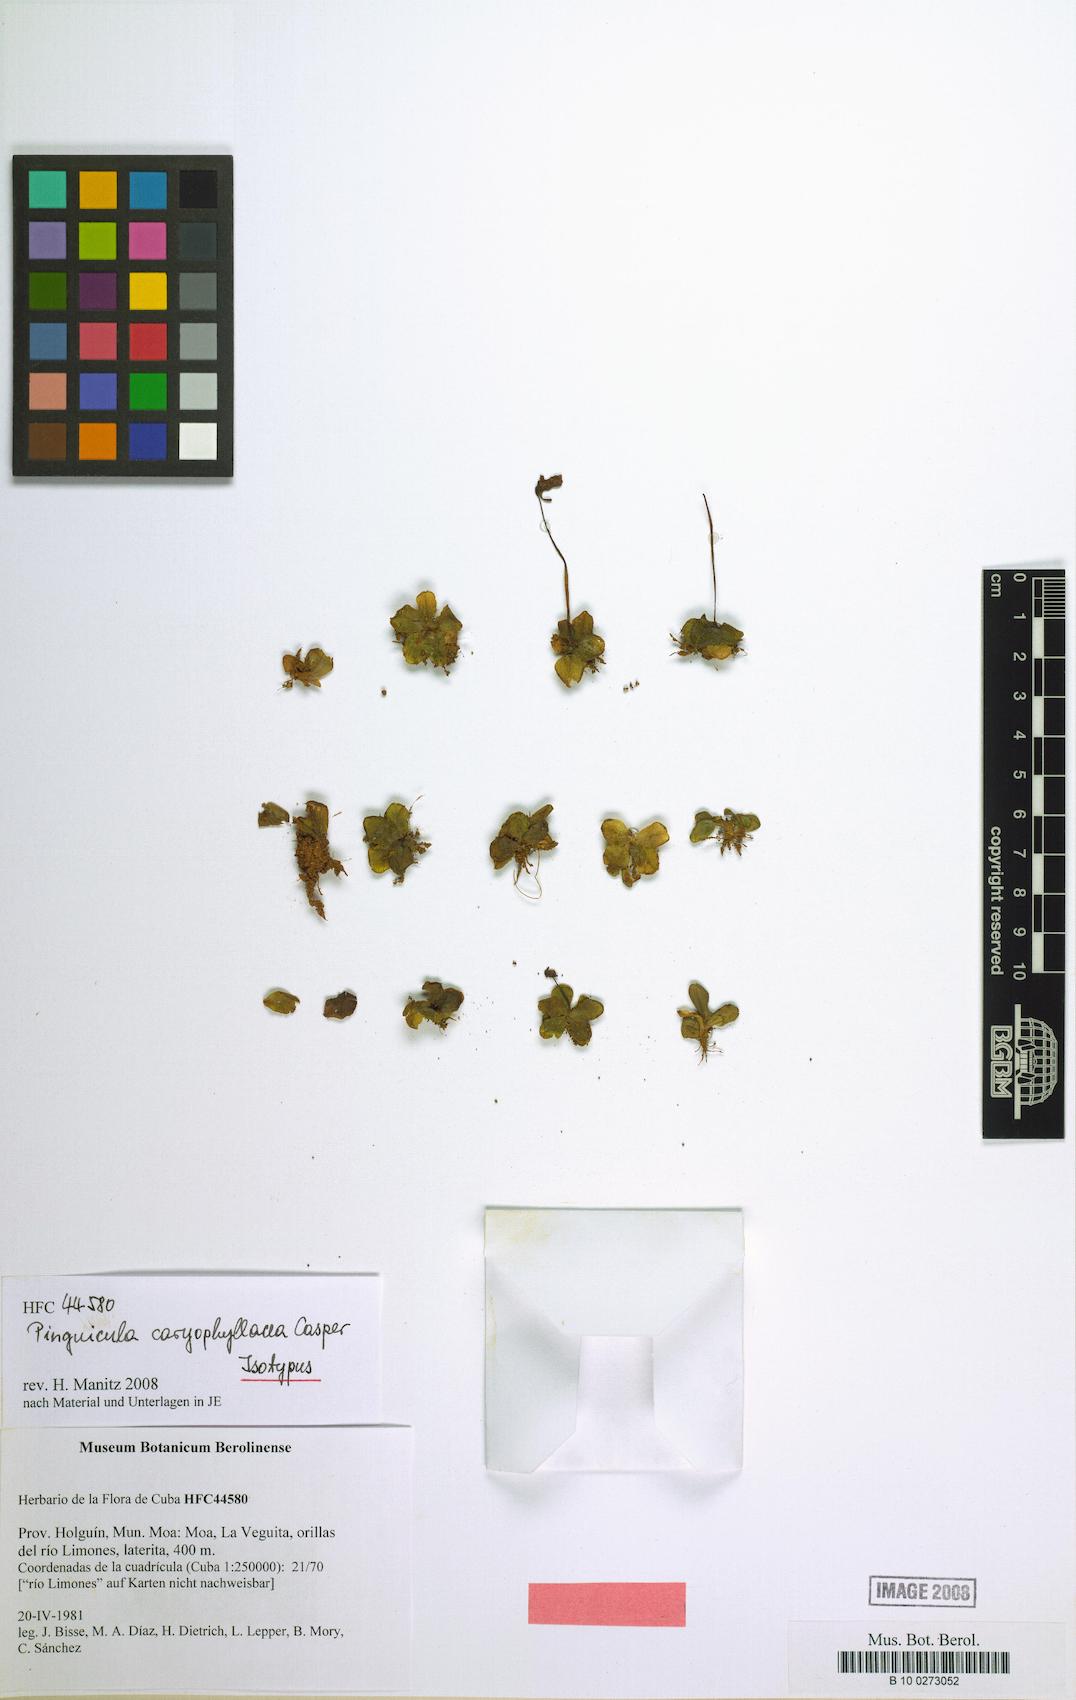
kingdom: Plantae
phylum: Tracheophyta
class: Magnoliopsida
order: Lamiales
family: Lentibulariaceae
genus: Pinguicula
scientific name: Pinguicula caryophyllacea
